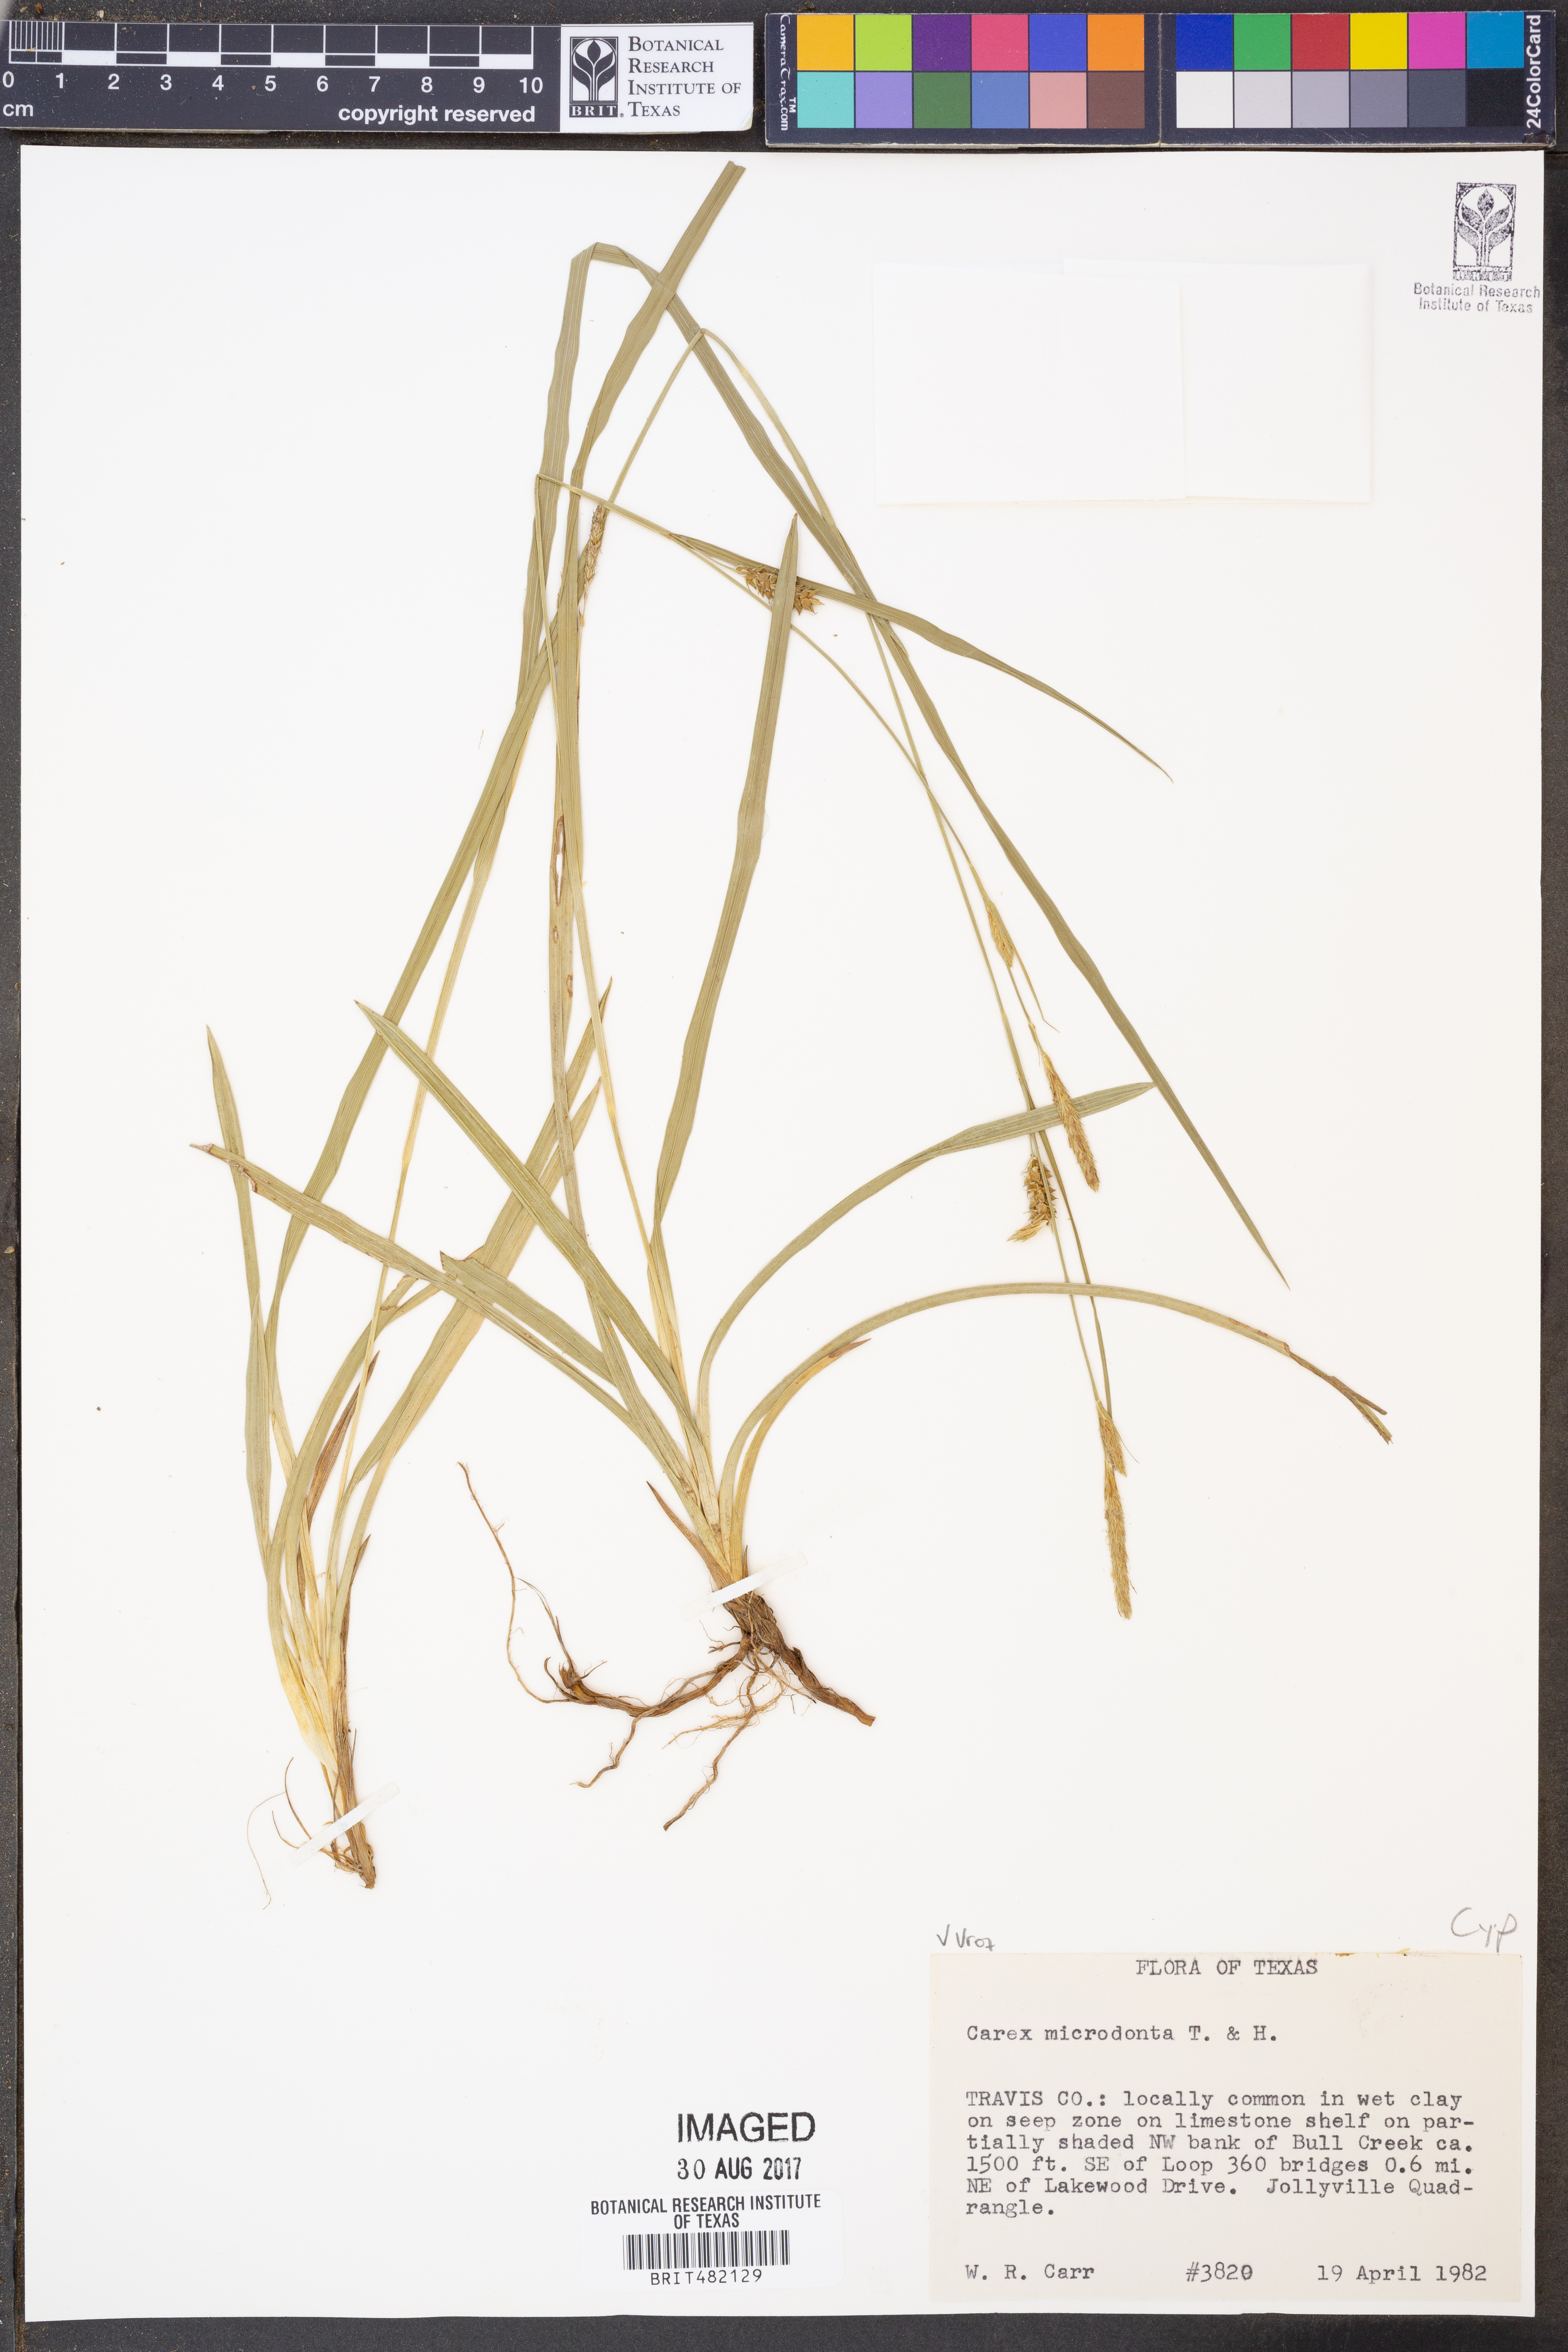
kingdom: Plantae
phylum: Tracheophyta
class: Liliopsida
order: Poales
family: Cyperaceae
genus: Carex
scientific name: Carex microdonta
